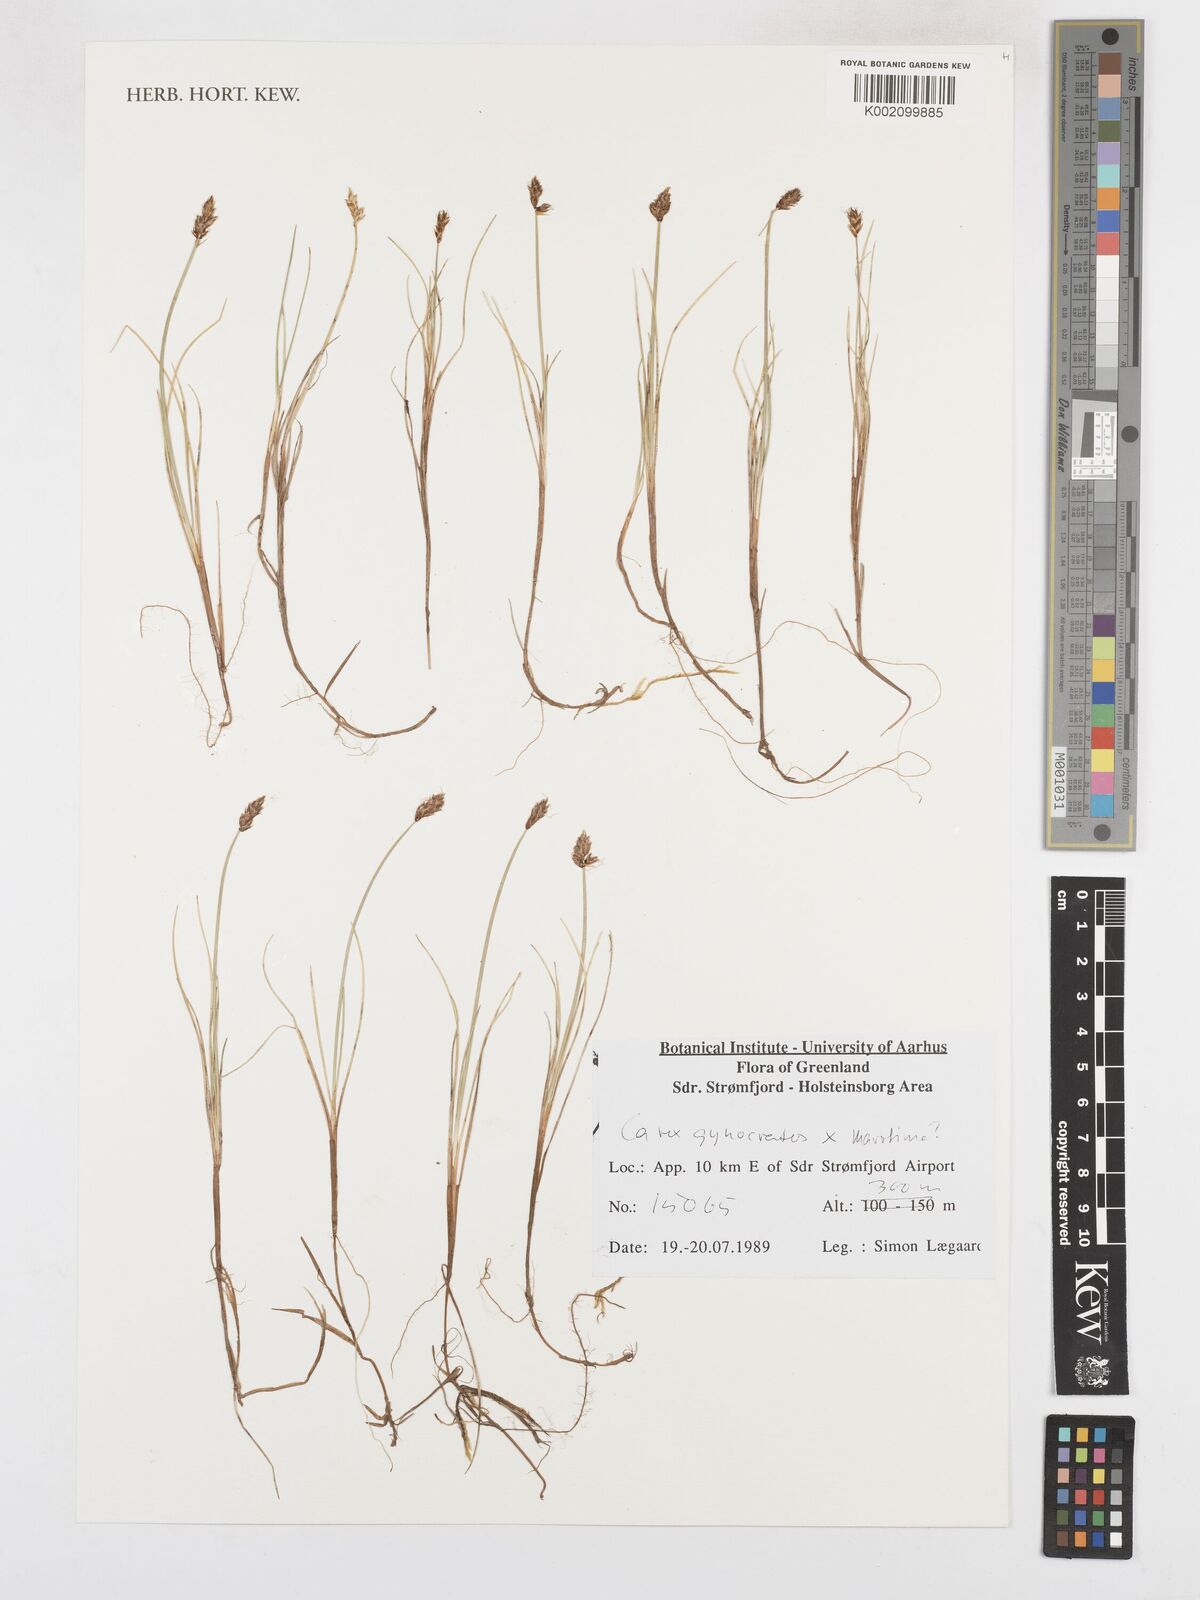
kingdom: Plantae
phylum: Tracheophyta
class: Liliopsida
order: Poales
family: Cyperaceae
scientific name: Cyperaceae
